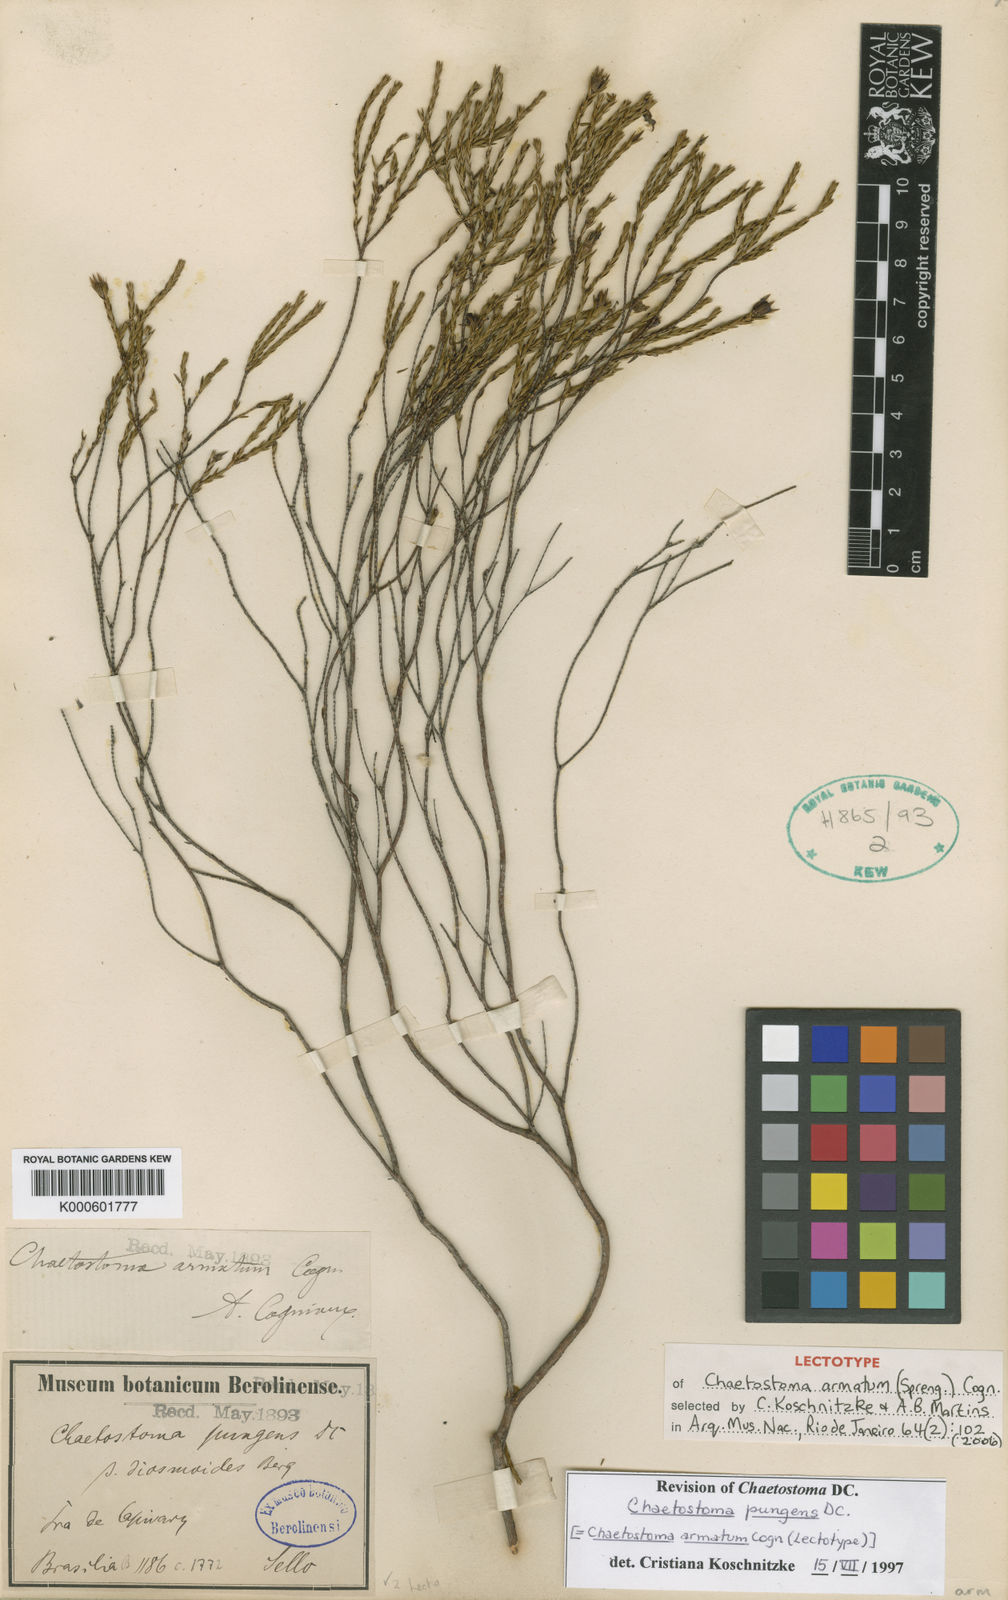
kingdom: Plantae
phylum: Tracheophyta
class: Magnoliopsida
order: Myrtales
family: Melastomataceae
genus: Microlicia
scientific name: Microlicia armata
